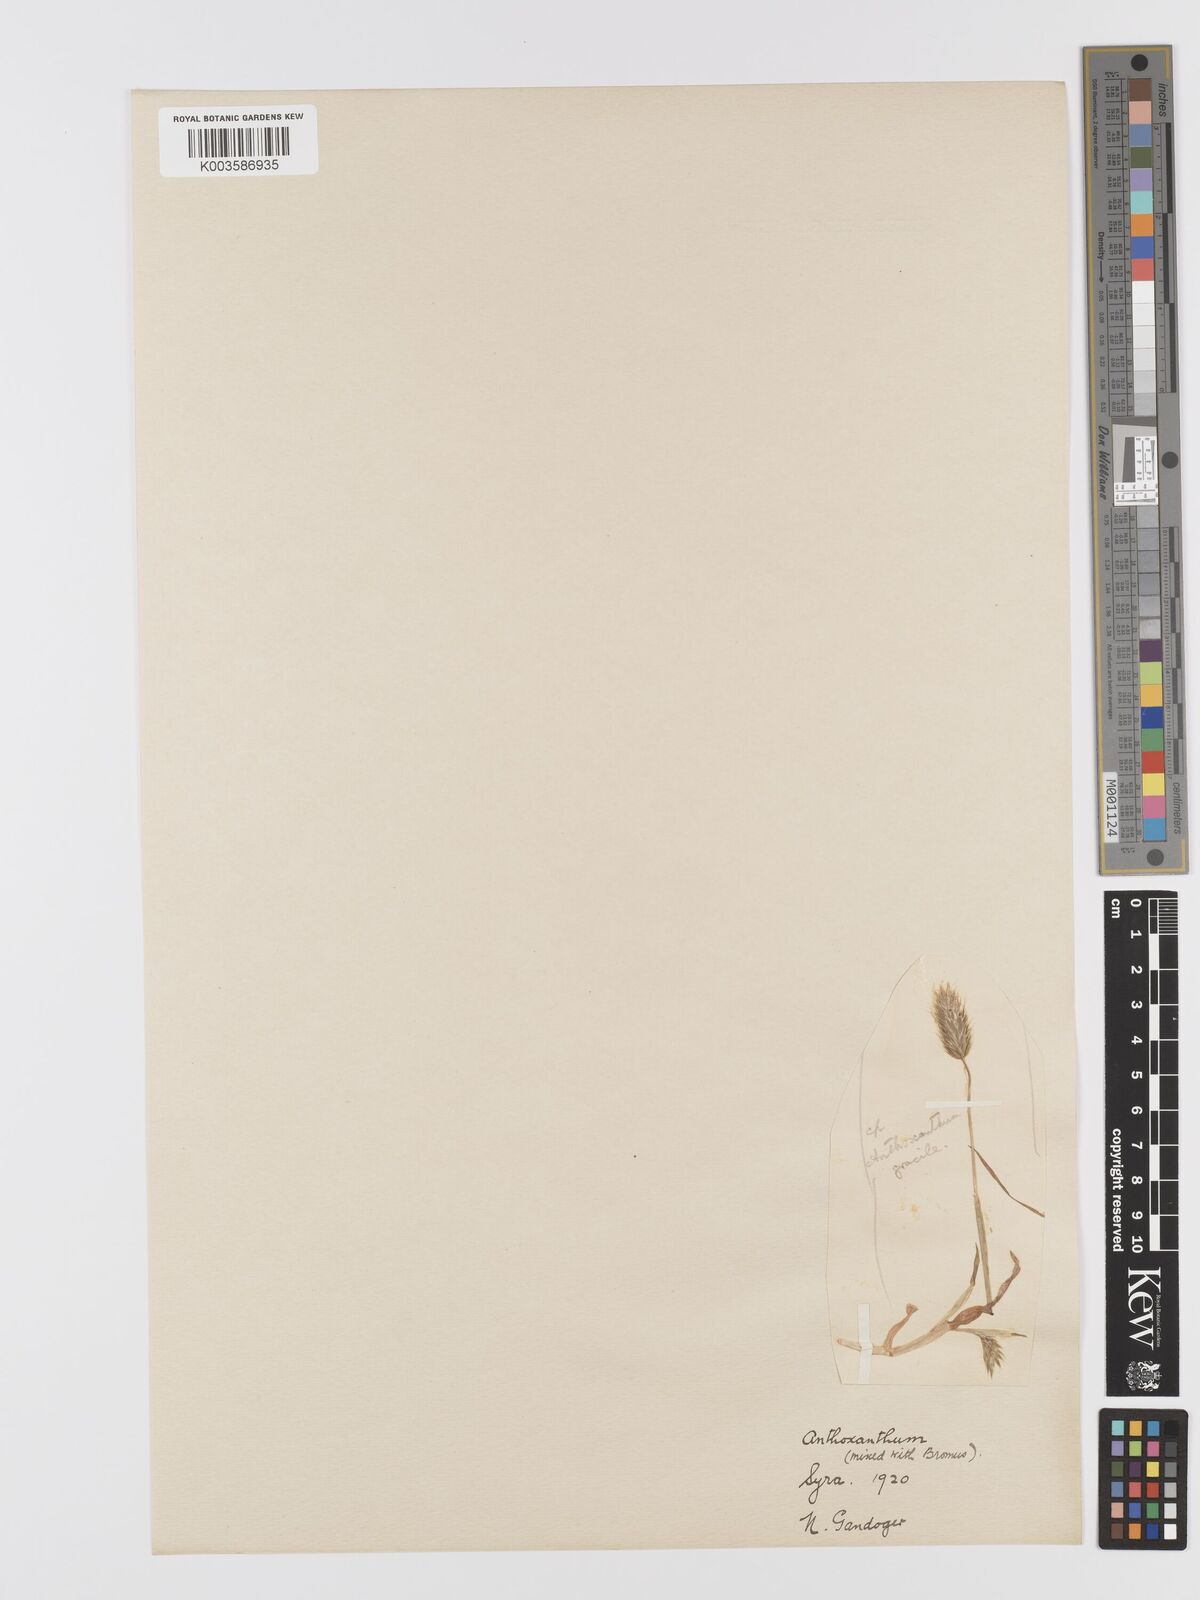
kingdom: Plantae
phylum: Tracheophyta
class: Liliopsida
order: Poales
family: Poaceae
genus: Anthoxanthum
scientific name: Anthoxanthum gracile
